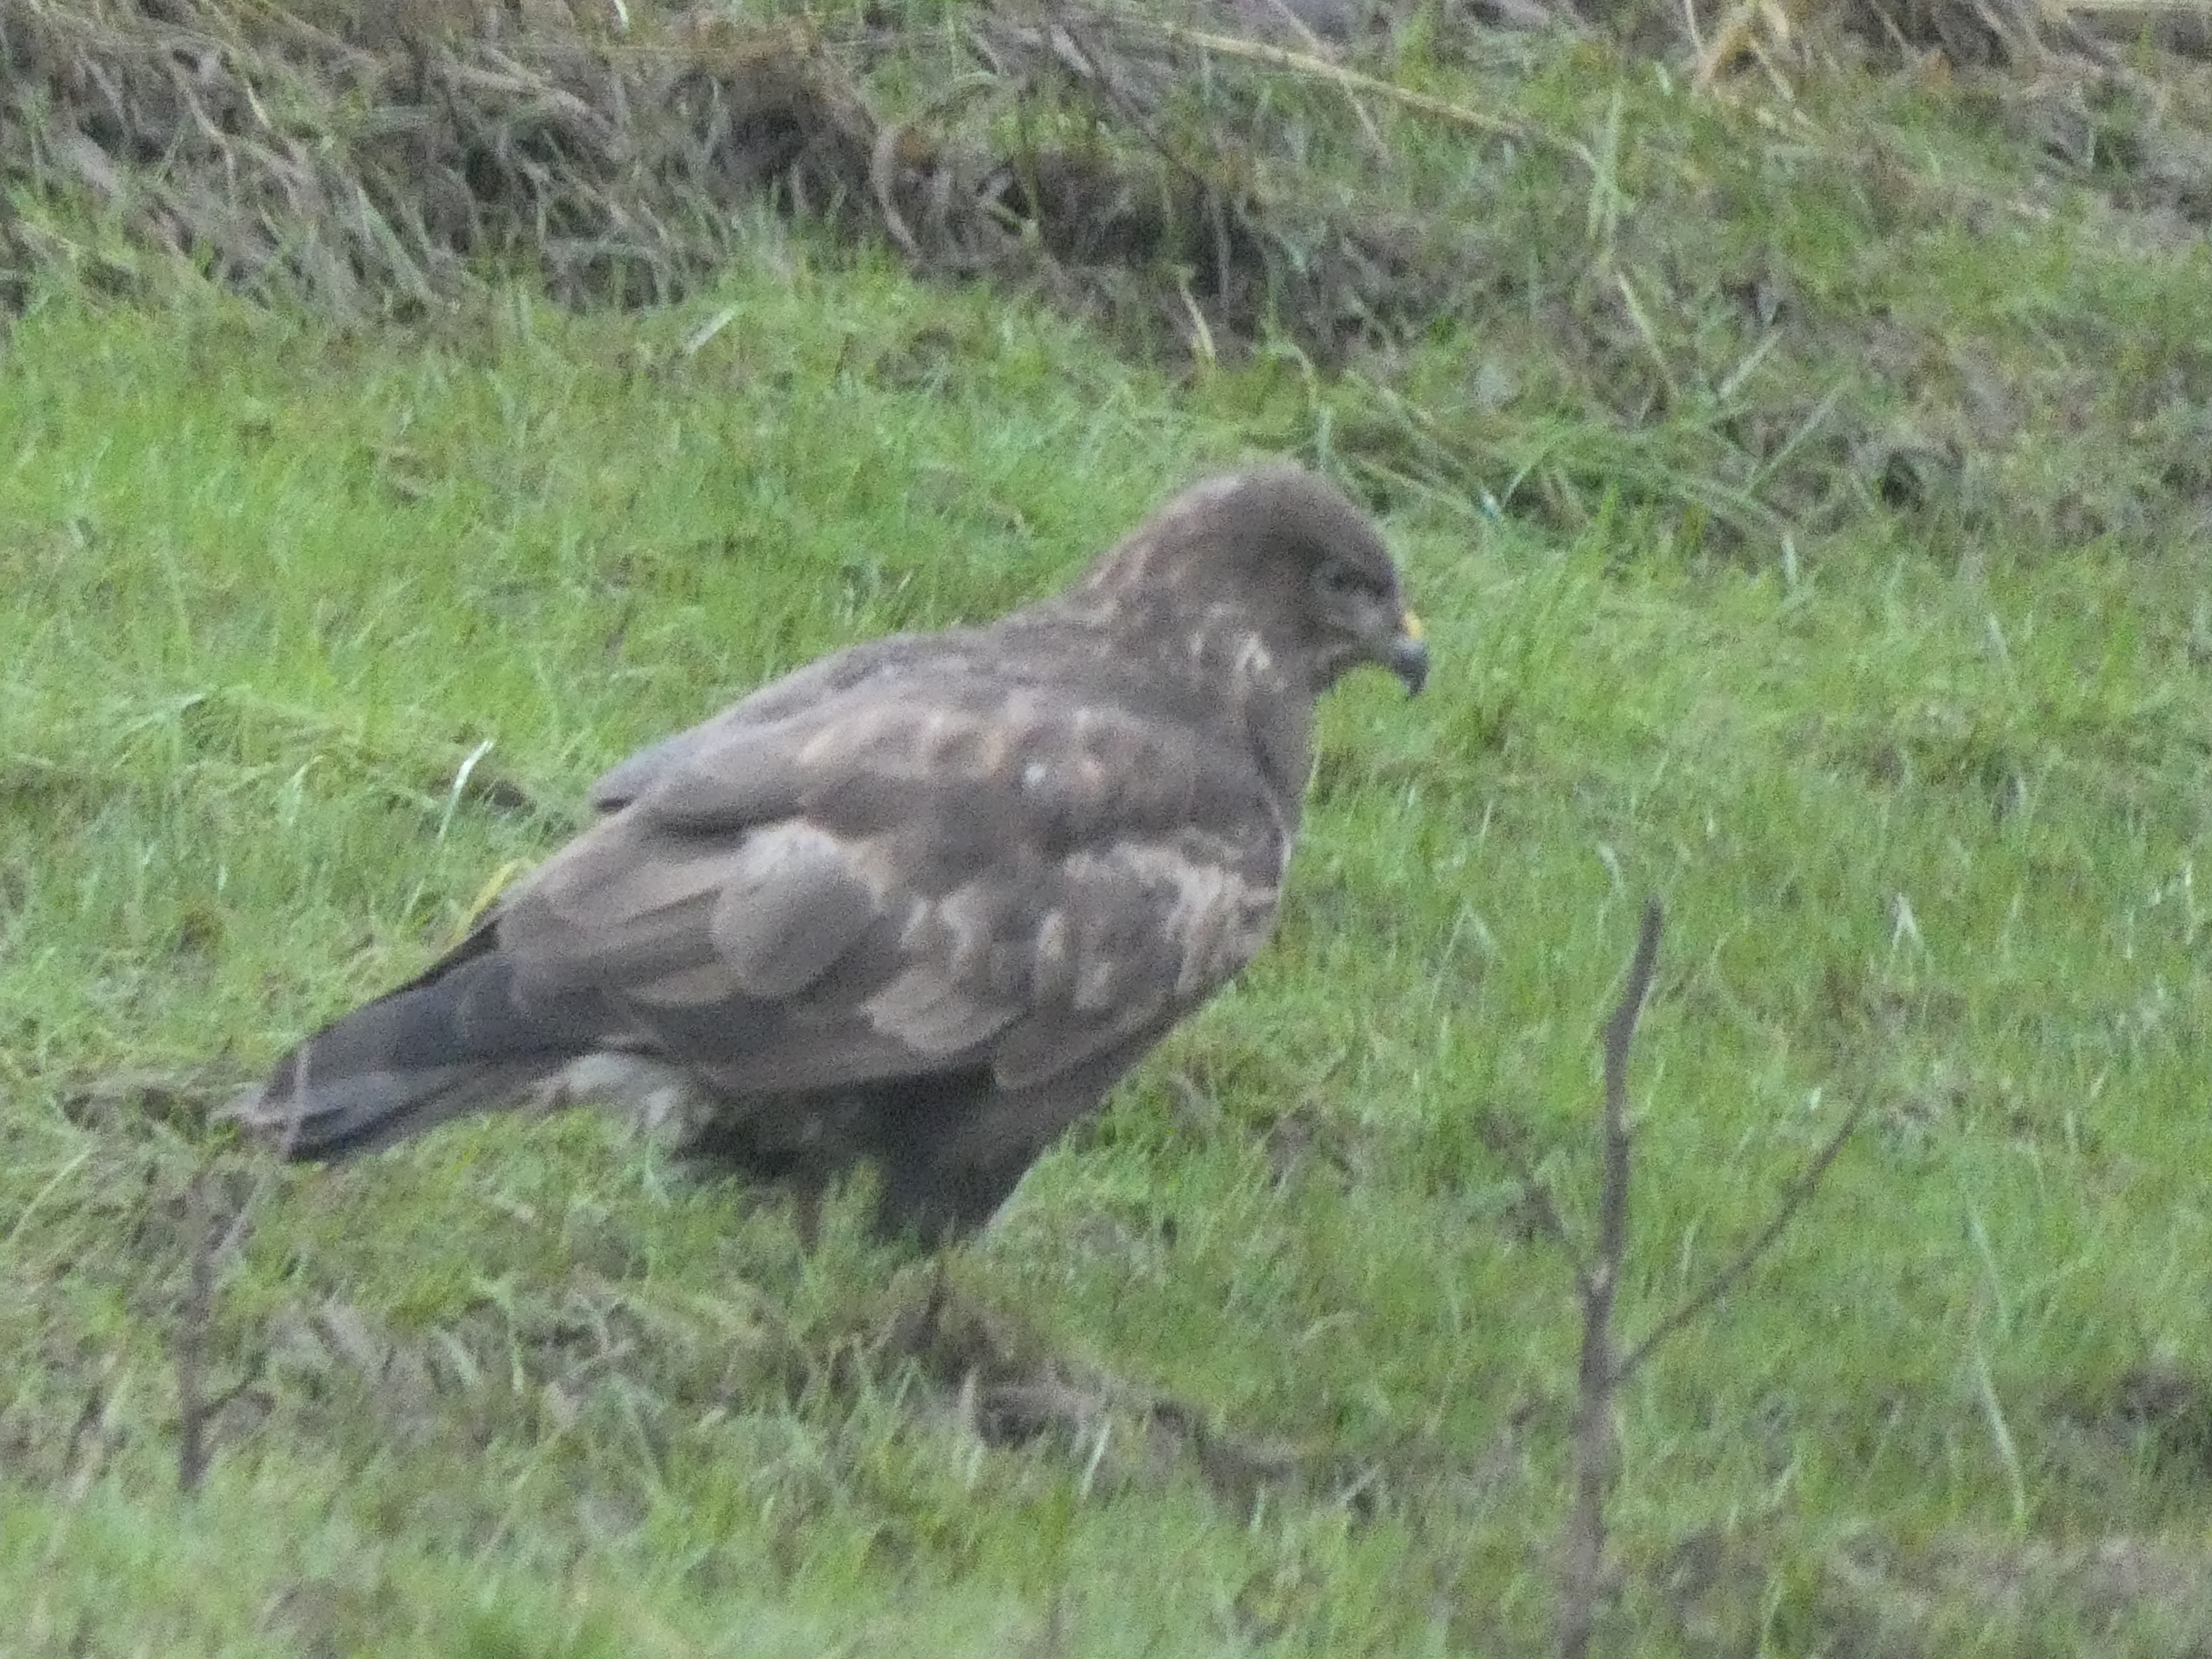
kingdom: Animalia
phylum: Chordata
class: Aves
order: Accipitriformes
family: Accipitridae
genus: Buteo
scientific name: Buteo buteo
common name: Musvåge
